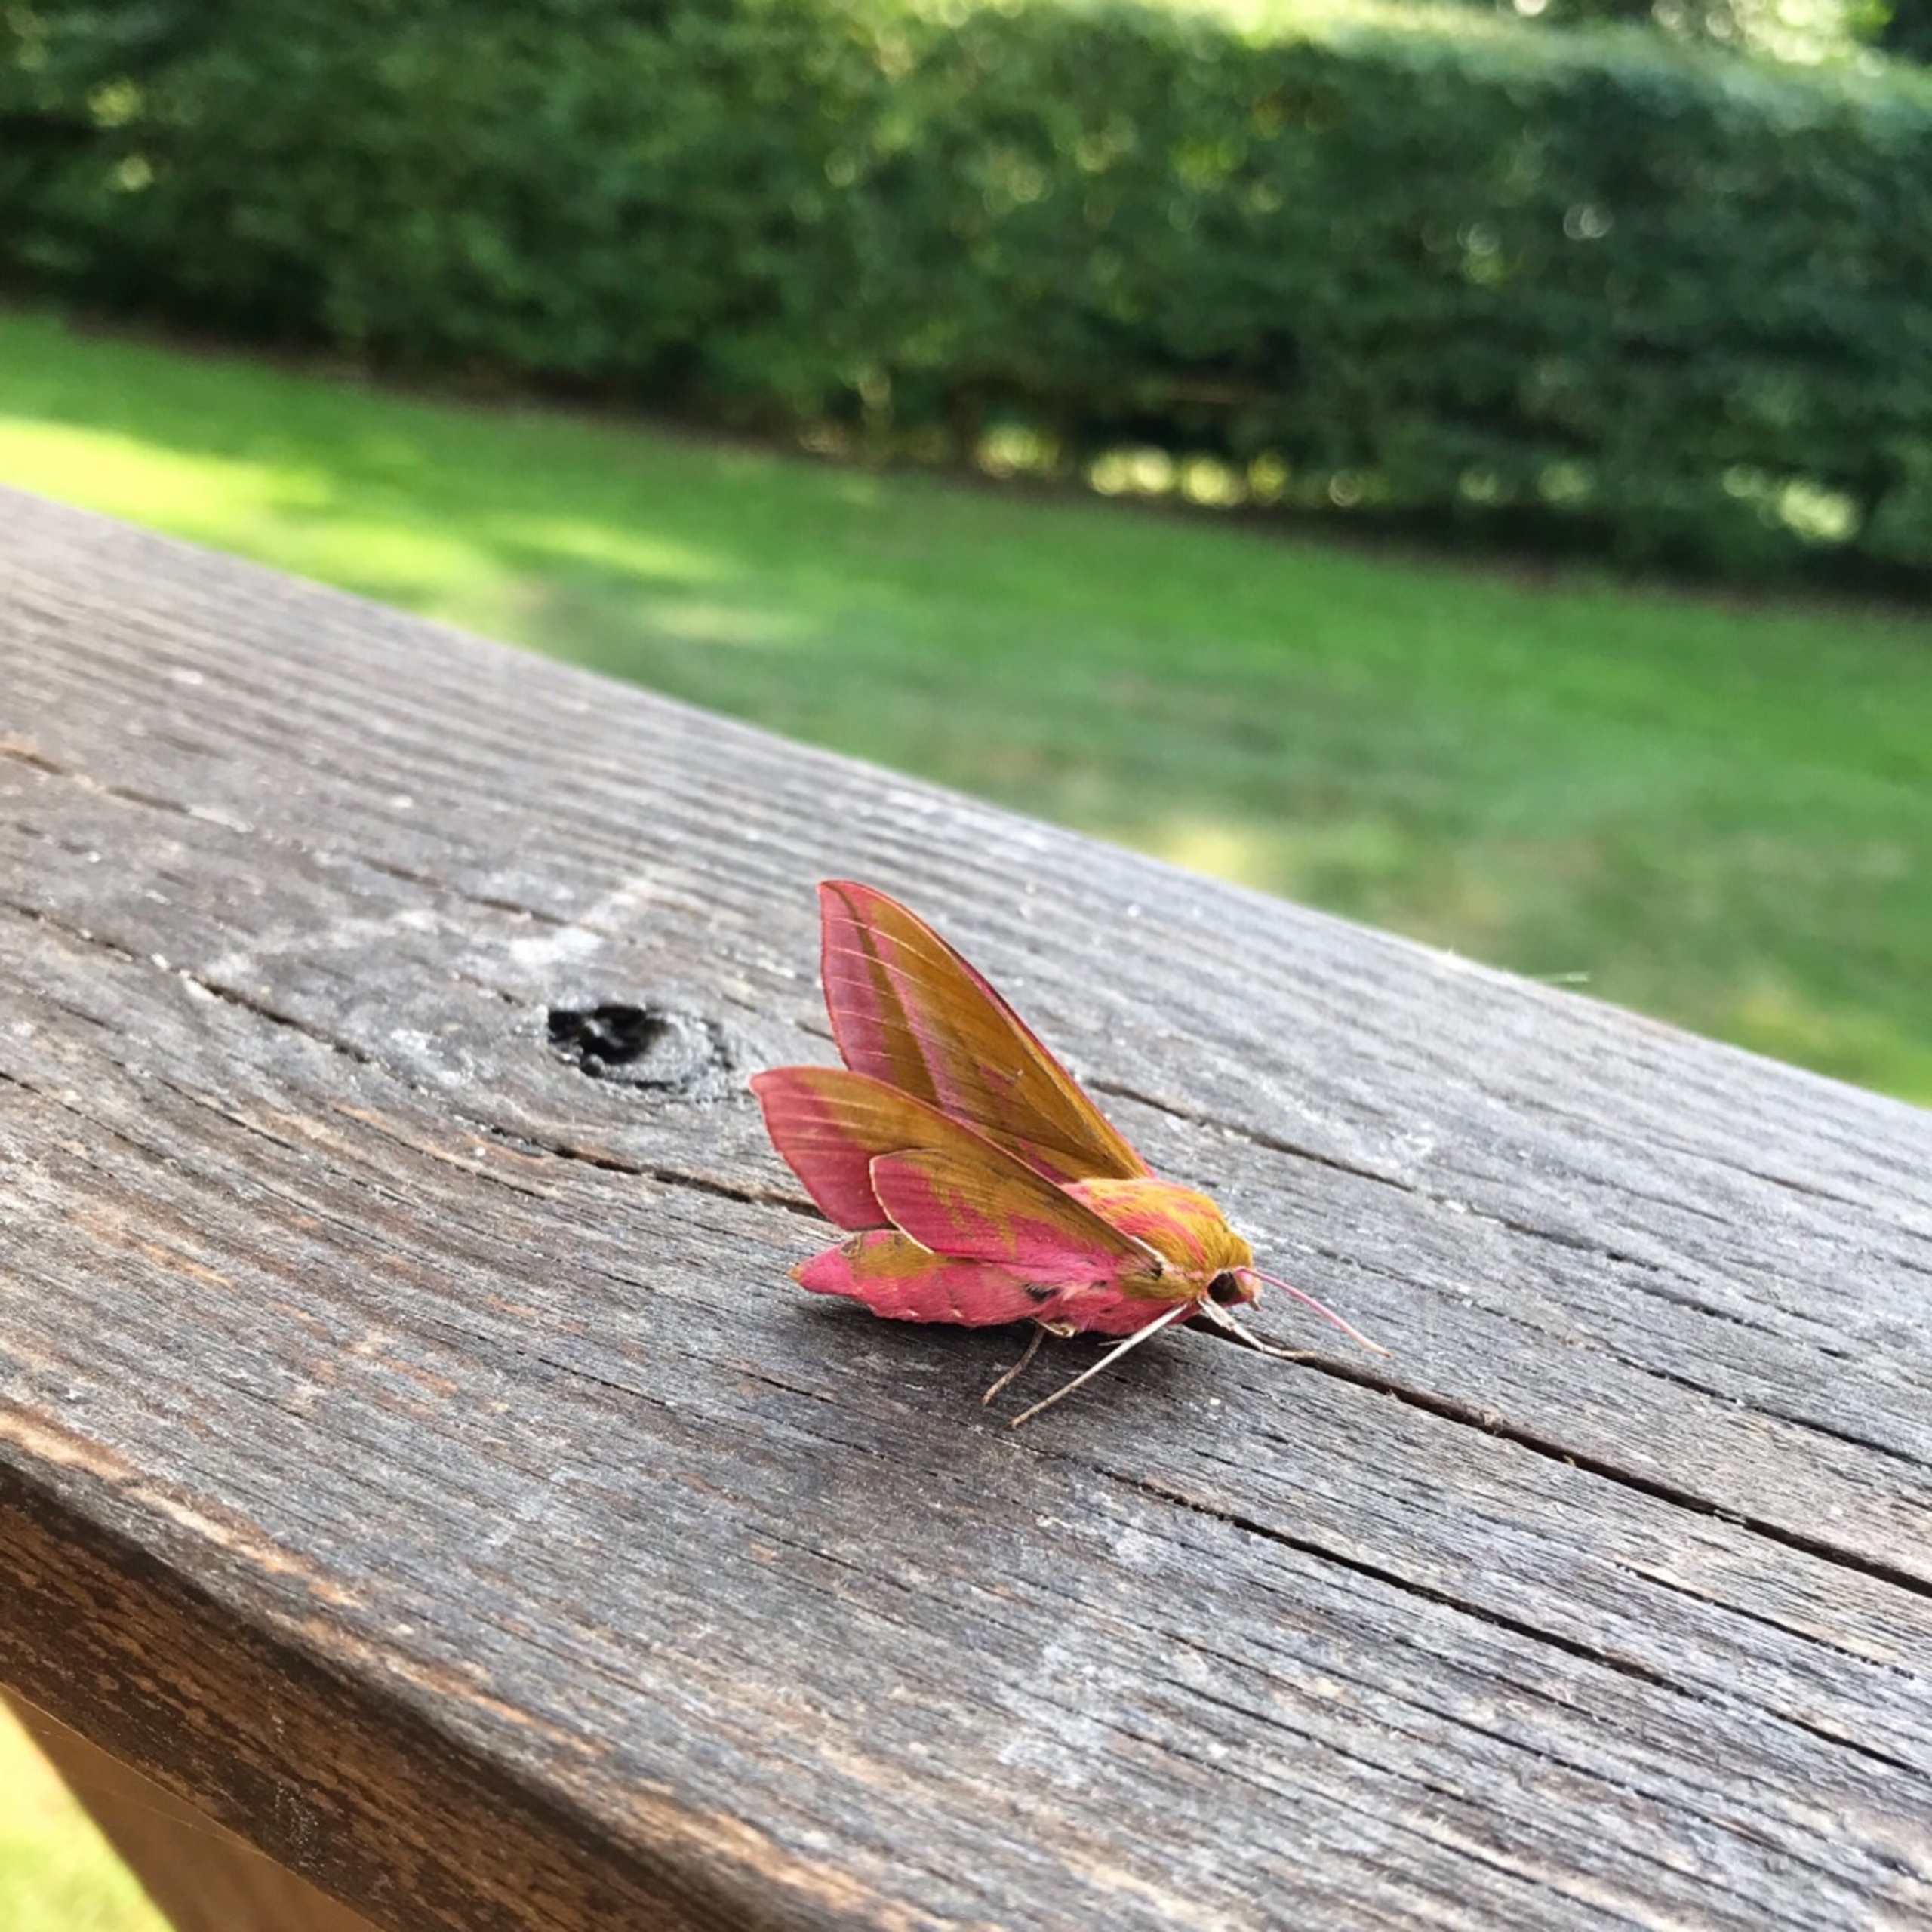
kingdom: Animalia
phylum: Arthropoda
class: Insecta
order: Lepidoptera
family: Sphingidae
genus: Deilephila
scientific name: Deilephila elpenor
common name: Dueurtsværmer
